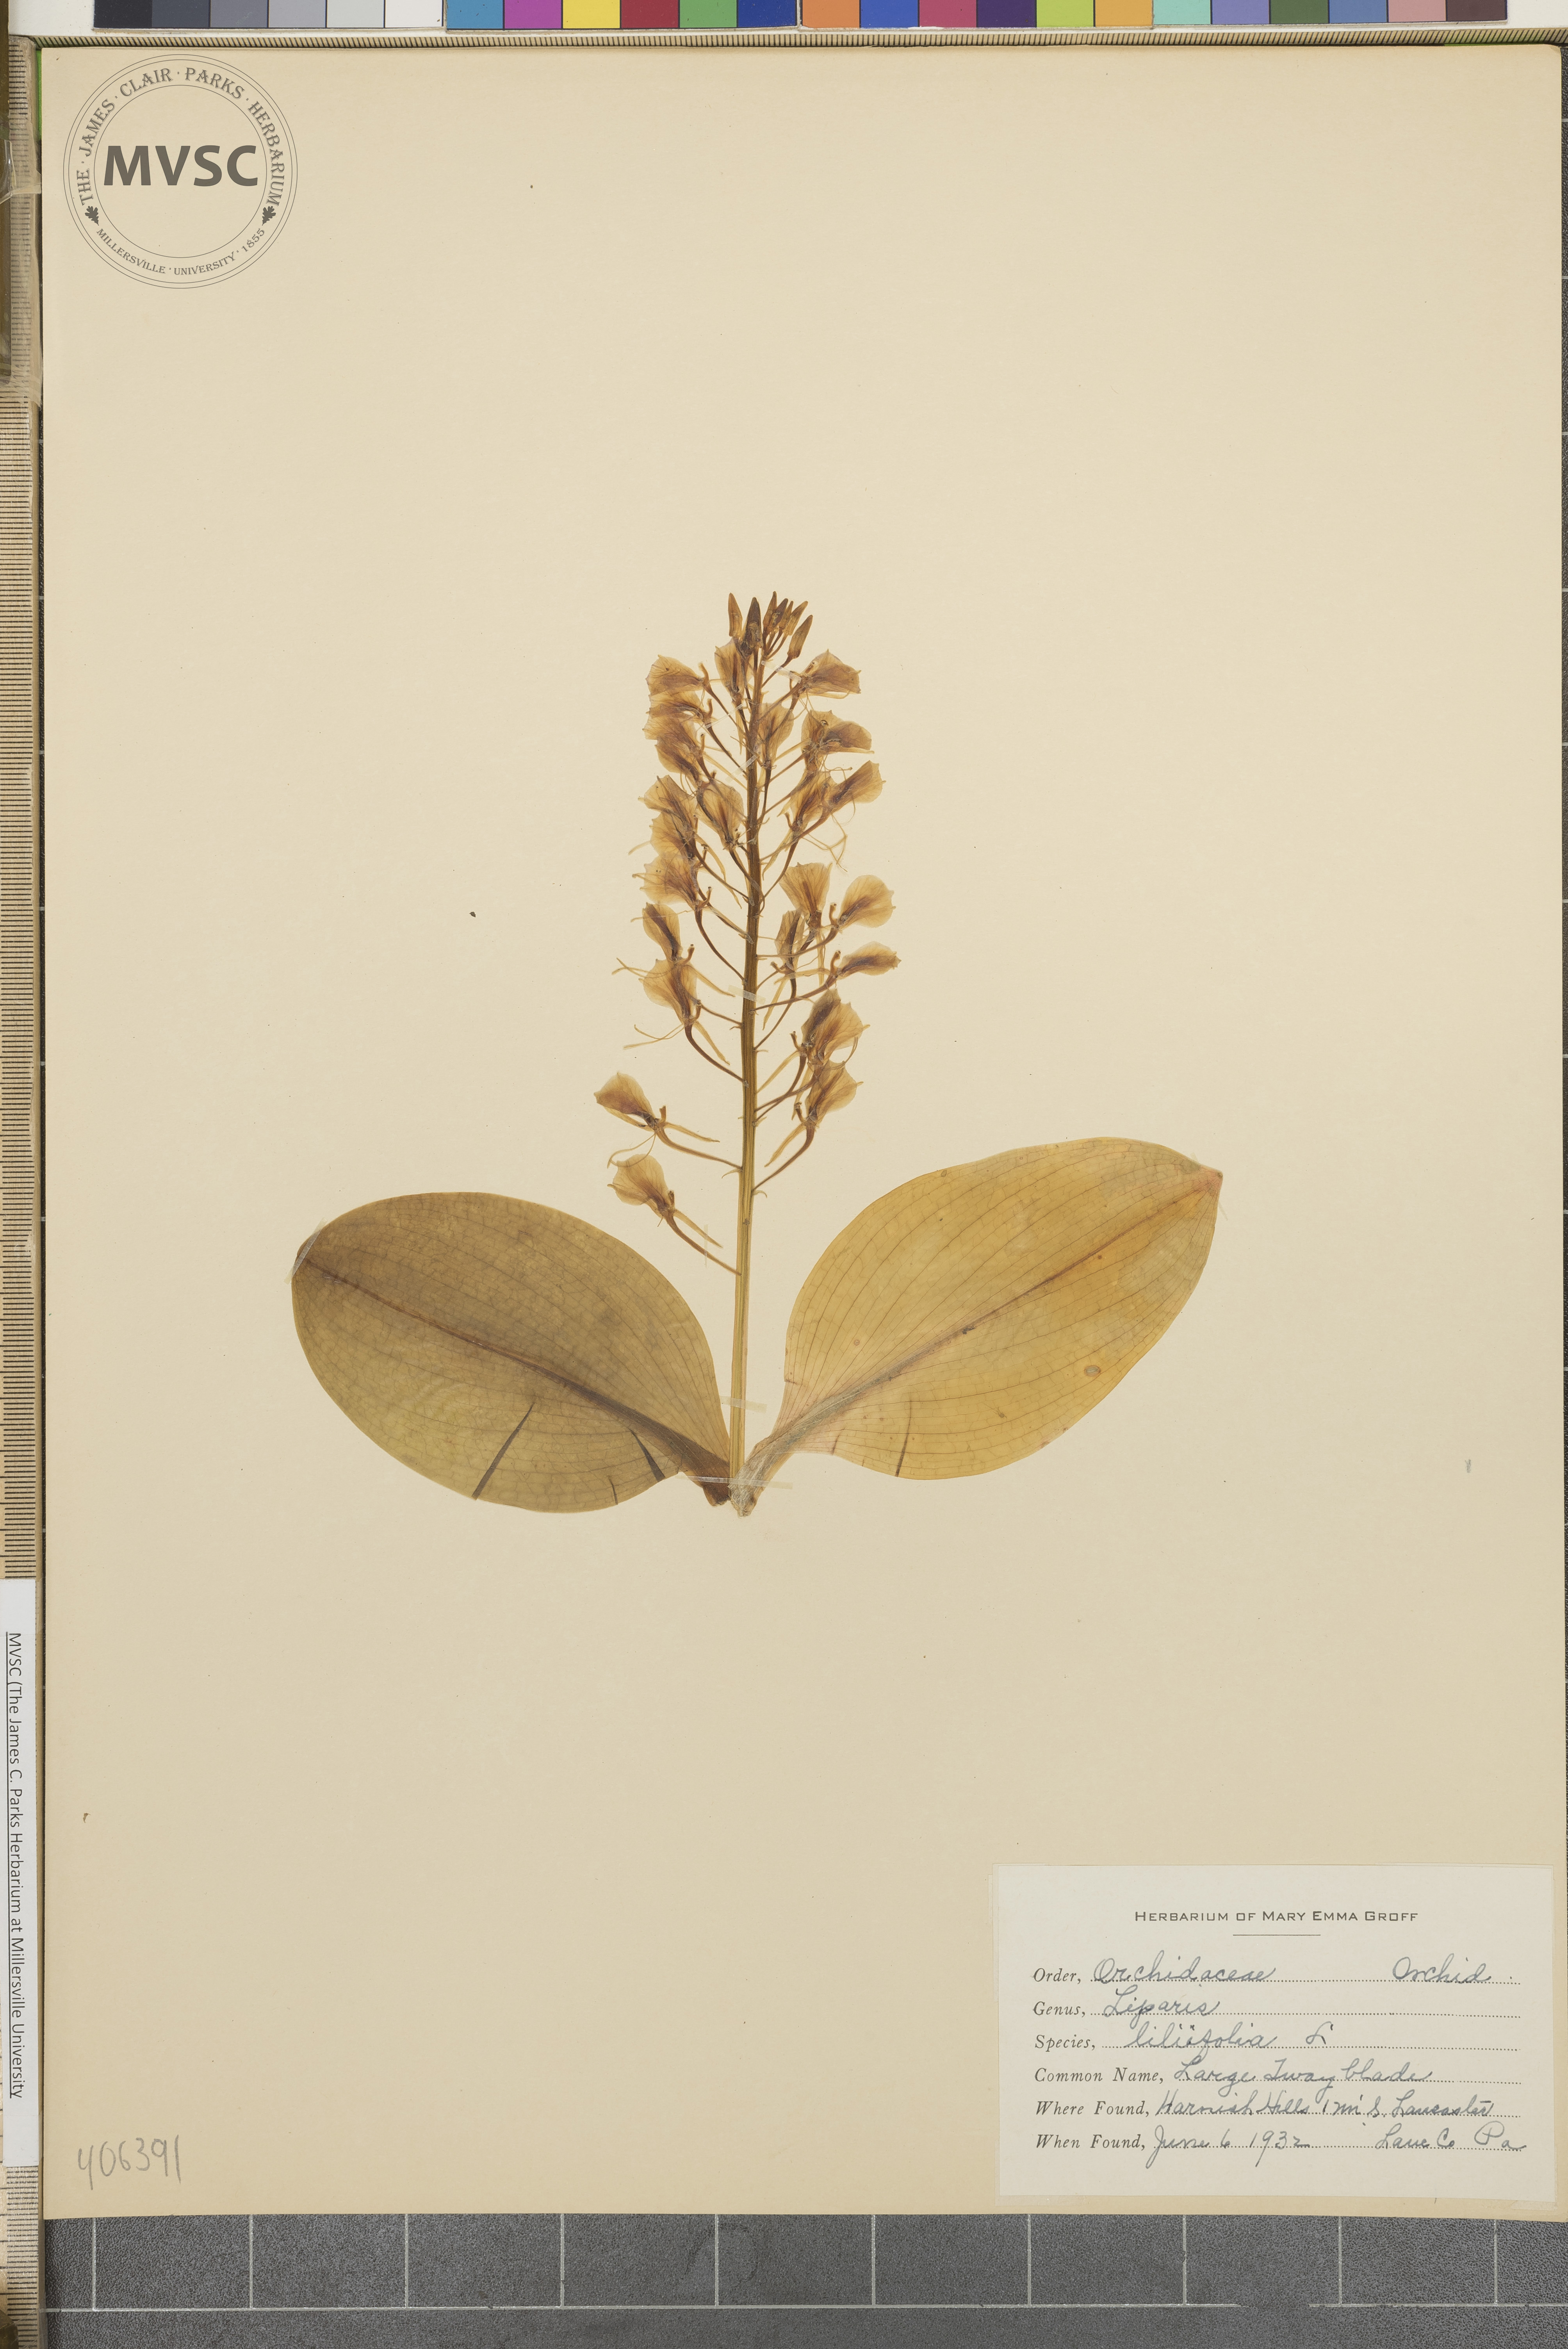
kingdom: Plantae
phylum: Tracheophyta
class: Liliopsida
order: Asparagales
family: Orchidaceae
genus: Liparis
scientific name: Liparis liliifolia
